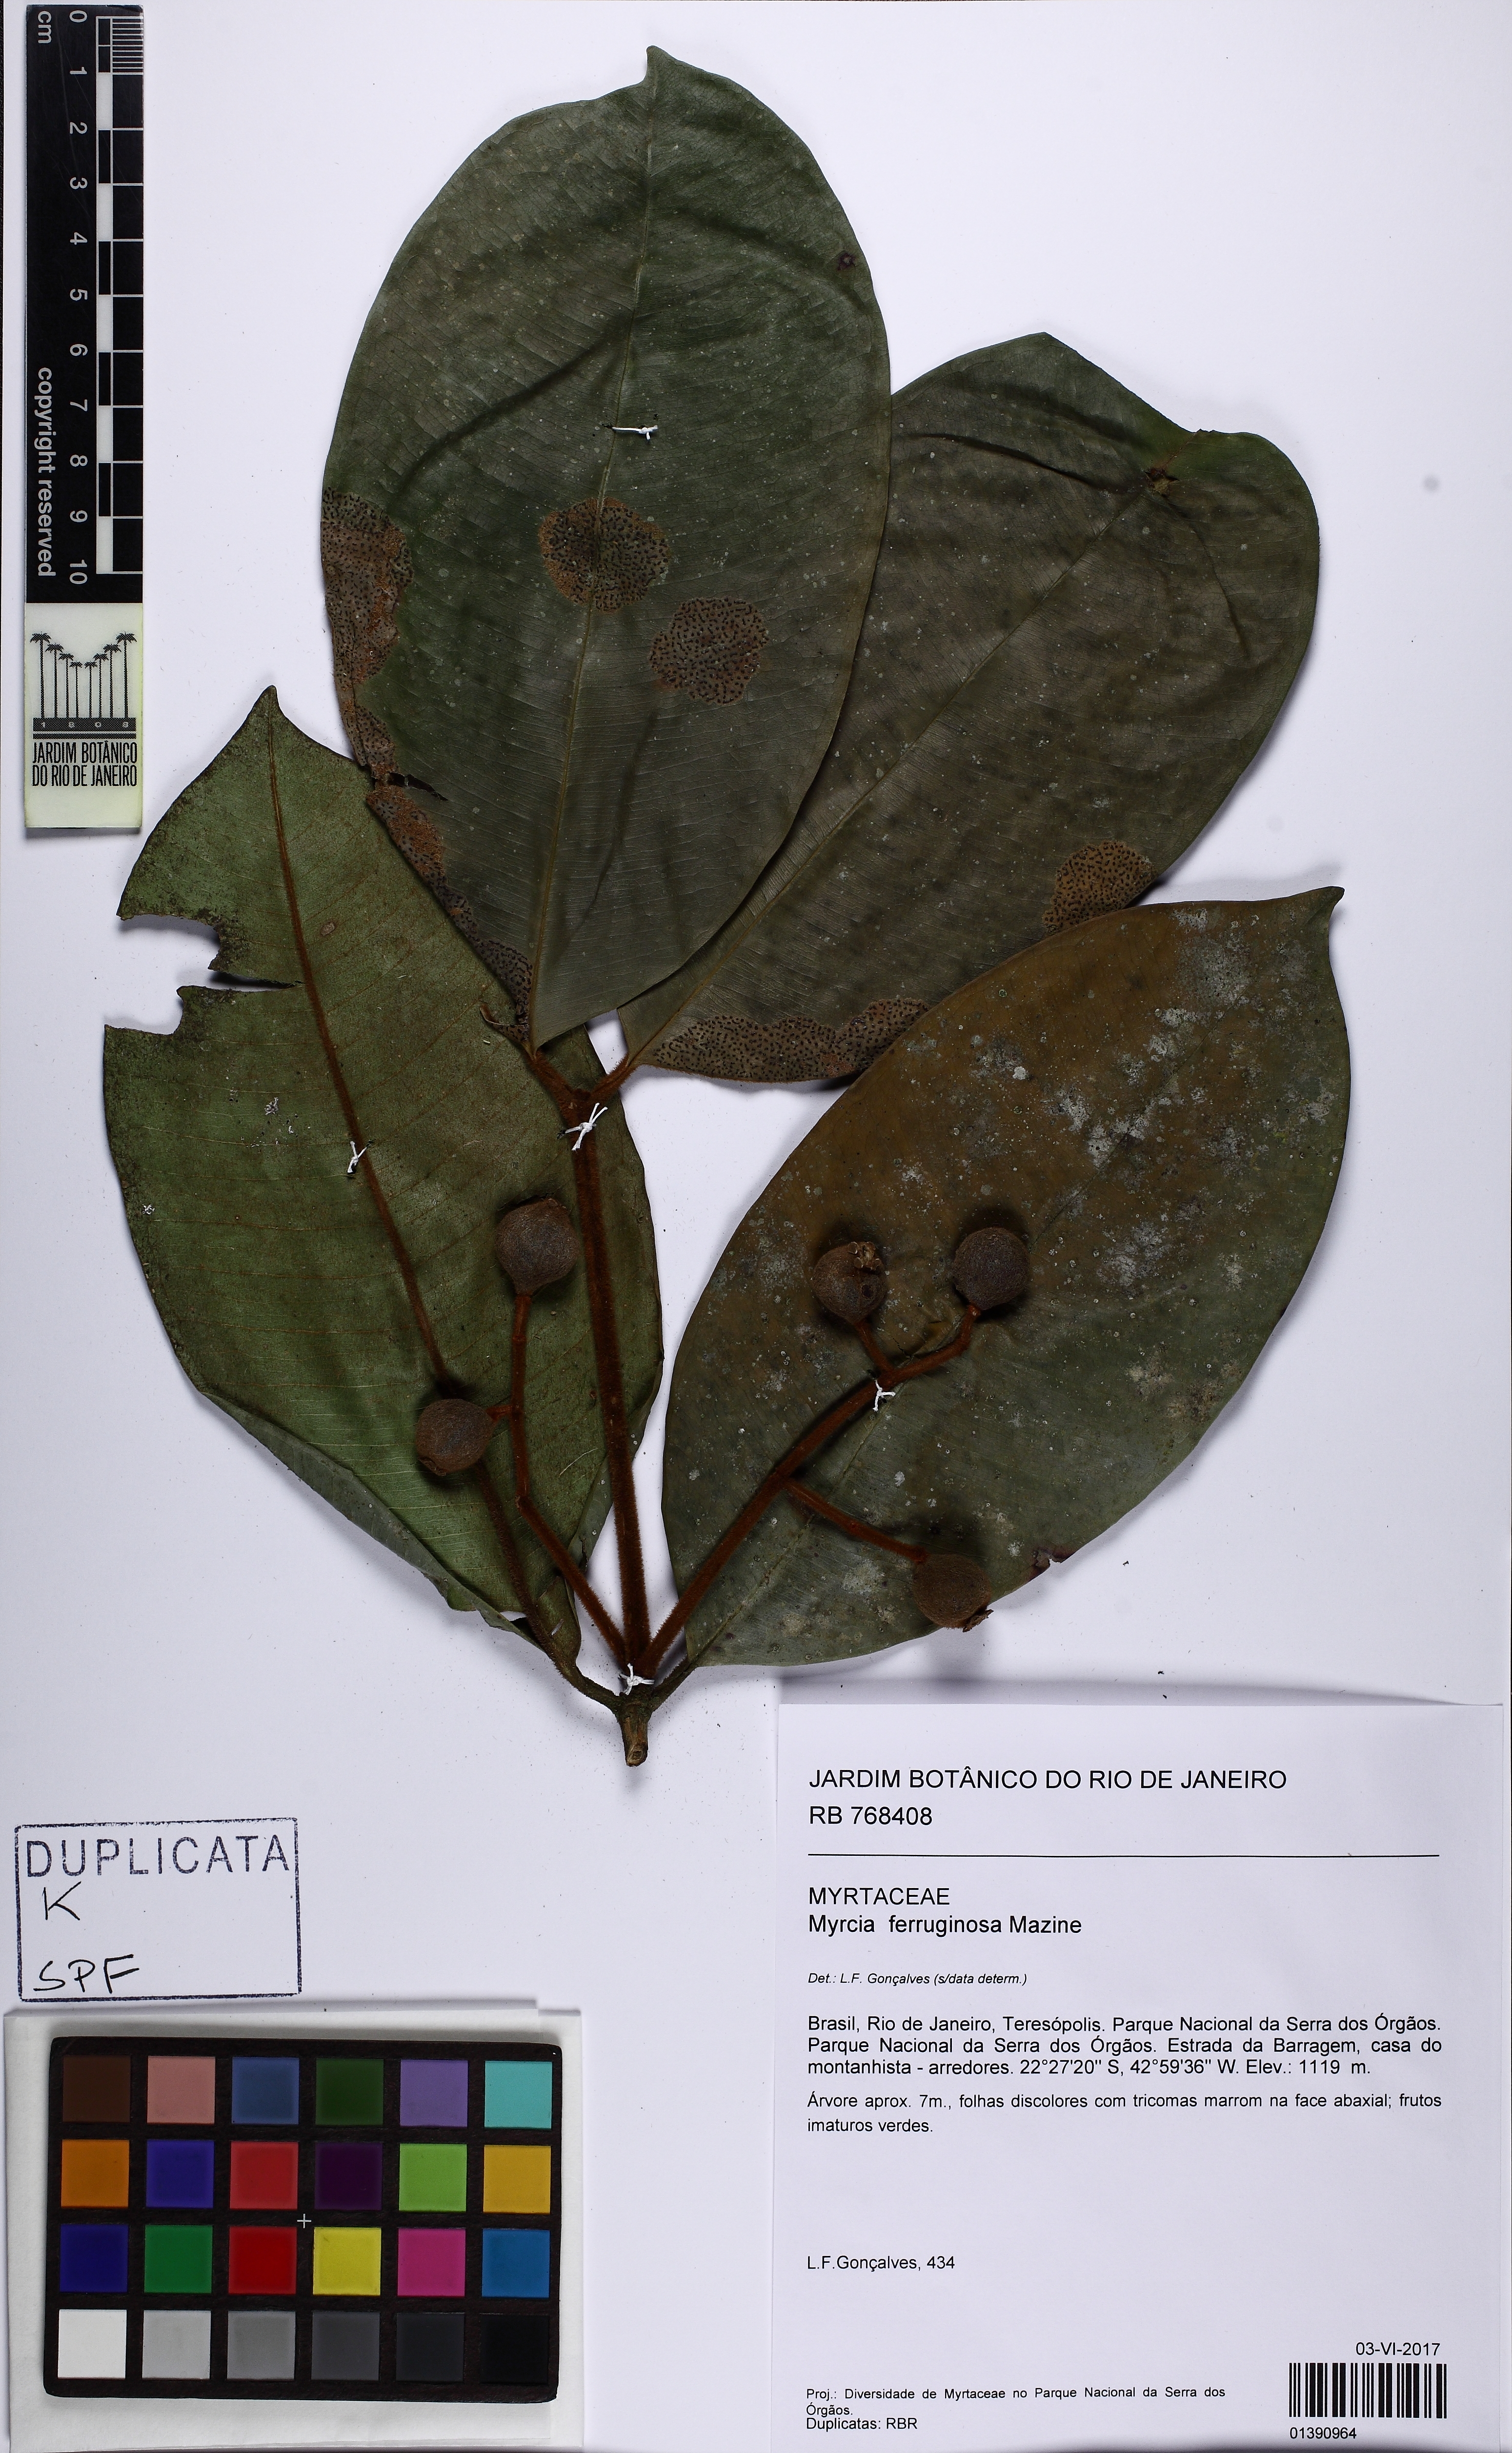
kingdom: Plantae
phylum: Tracheophyta
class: Magnoliopsida
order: Myrtales
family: Myrtaceae
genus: Myrcia
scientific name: Myrcia ferruginosa
